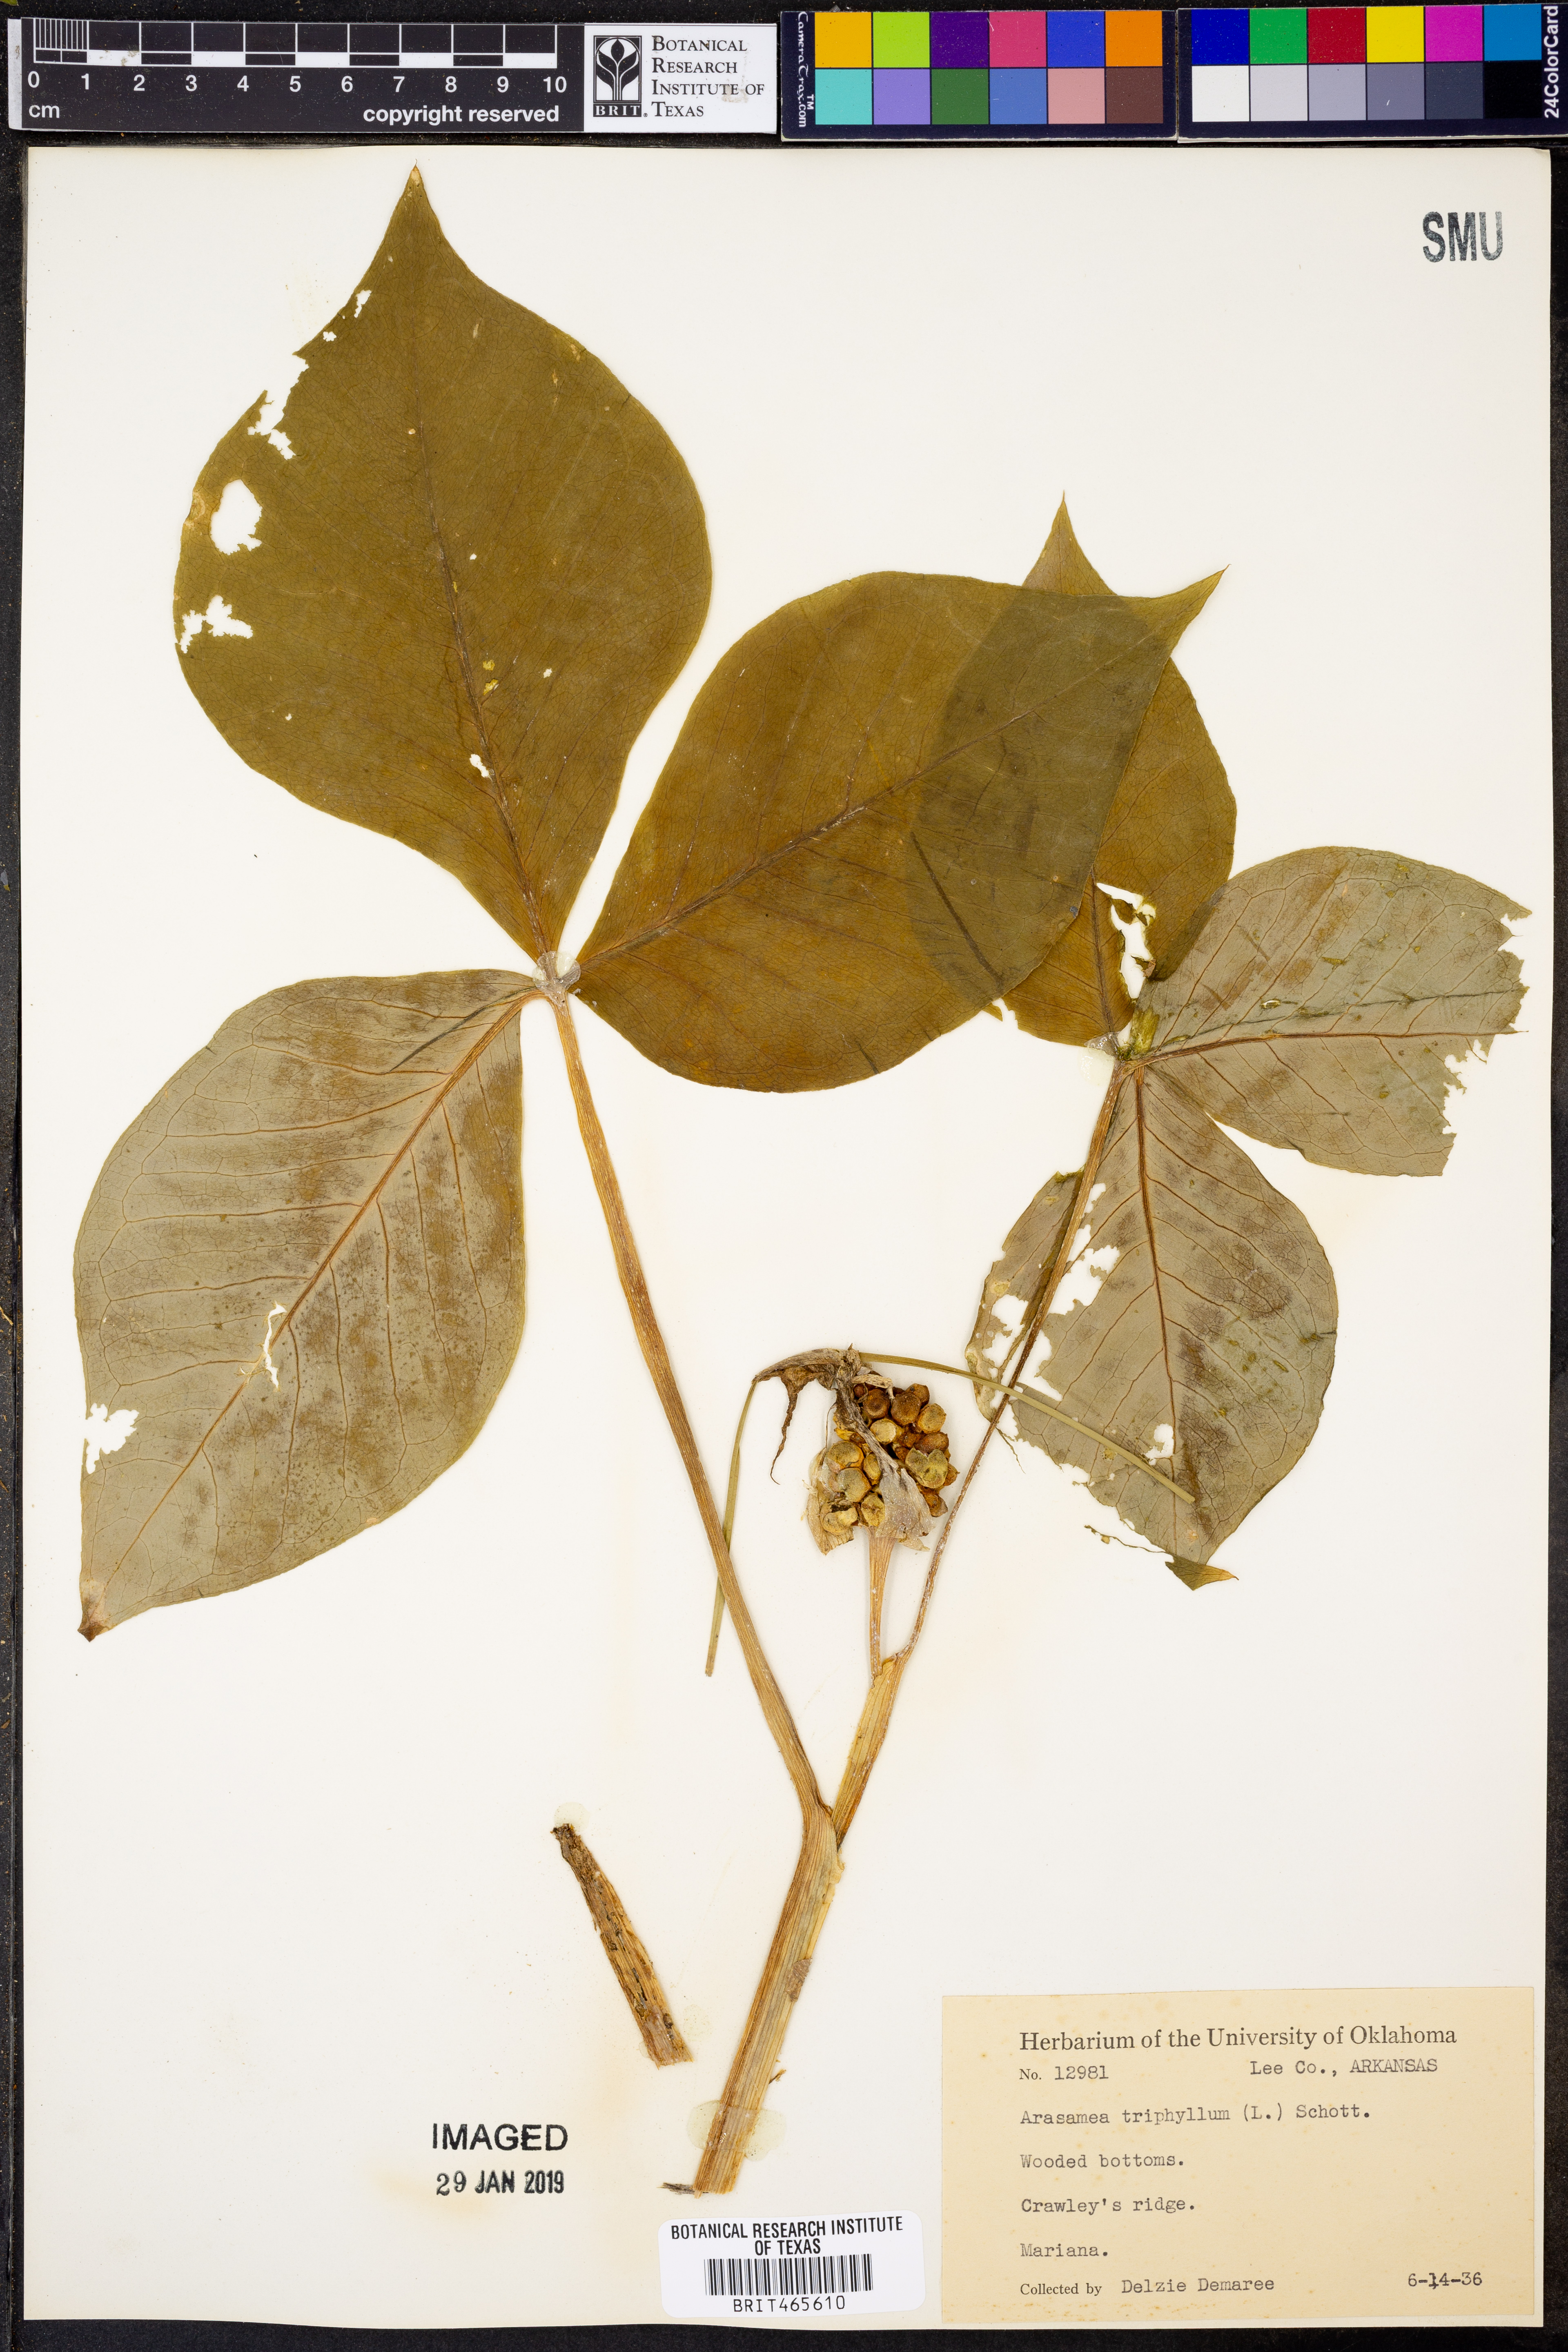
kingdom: Plantae
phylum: Tracheophyta
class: Liliopsida
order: Alismatales
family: Araceae
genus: Arisaema
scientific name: Arisaema triphyllum
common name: Jack-in-the-pulpit
